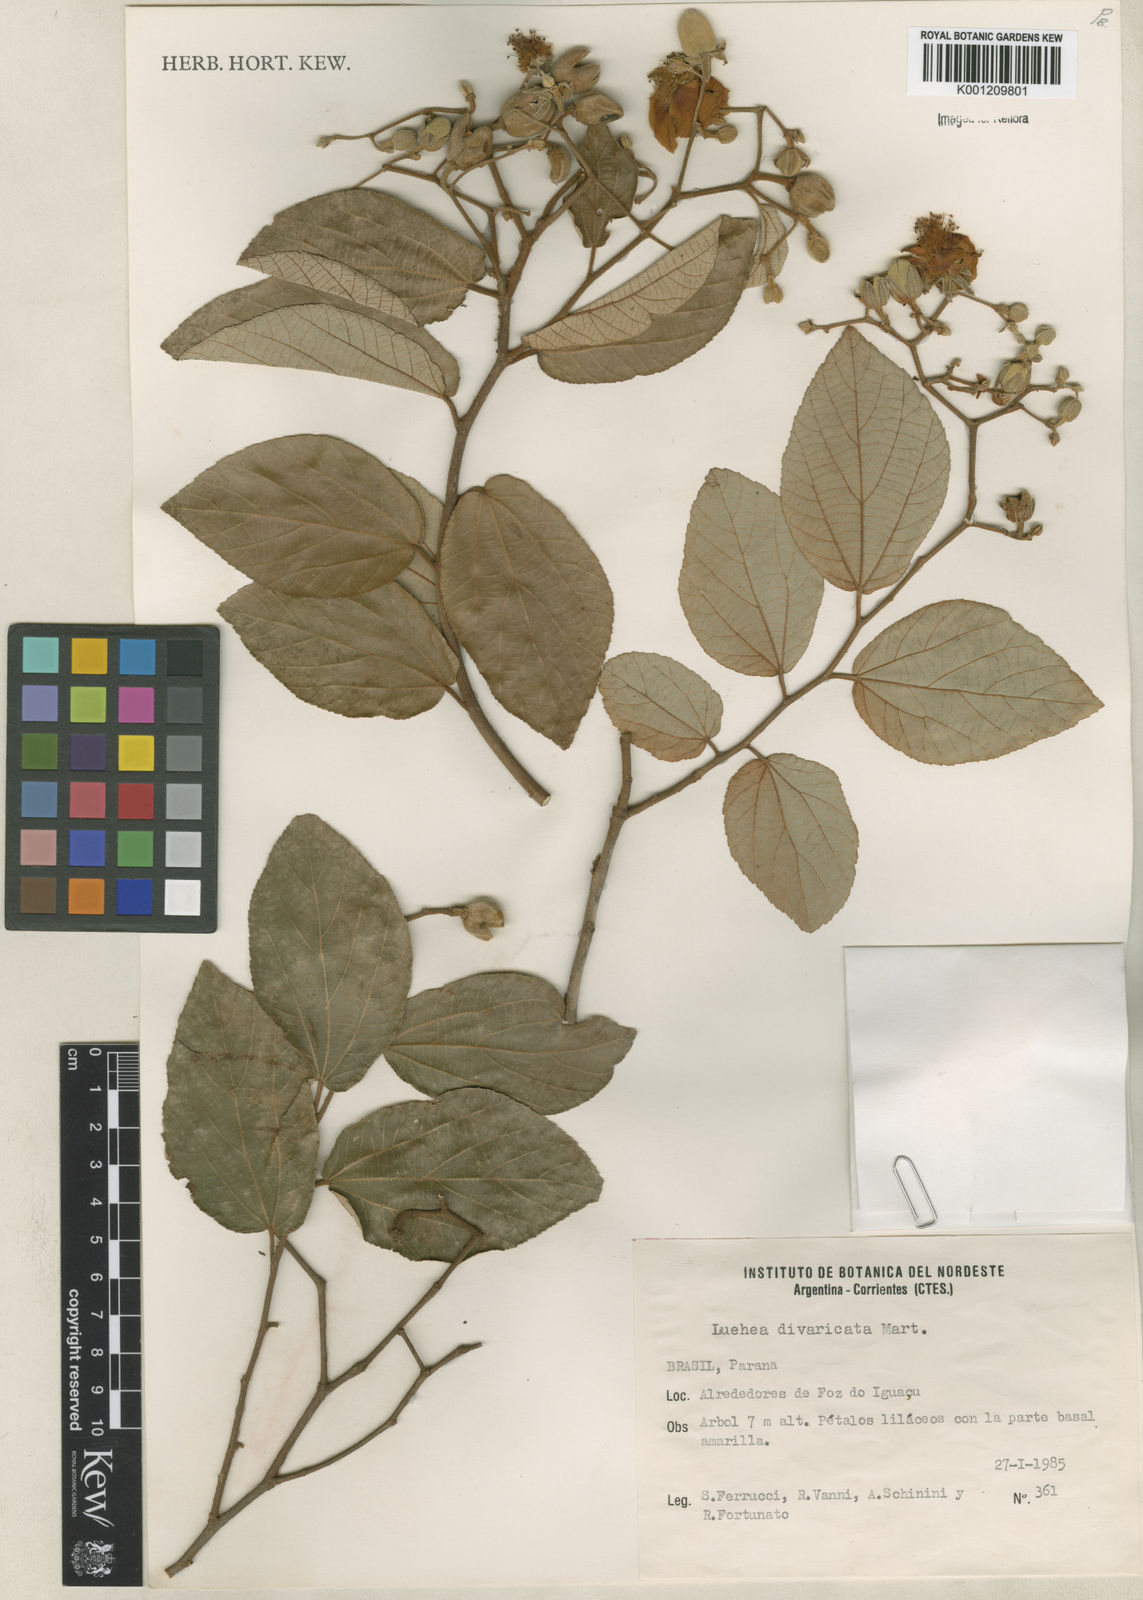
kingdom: Plantae
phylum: Tracheophyta
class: Magnoliopsida
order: Malvales
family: Malvaceae
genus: Luehea
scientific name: Luehea divaricata
